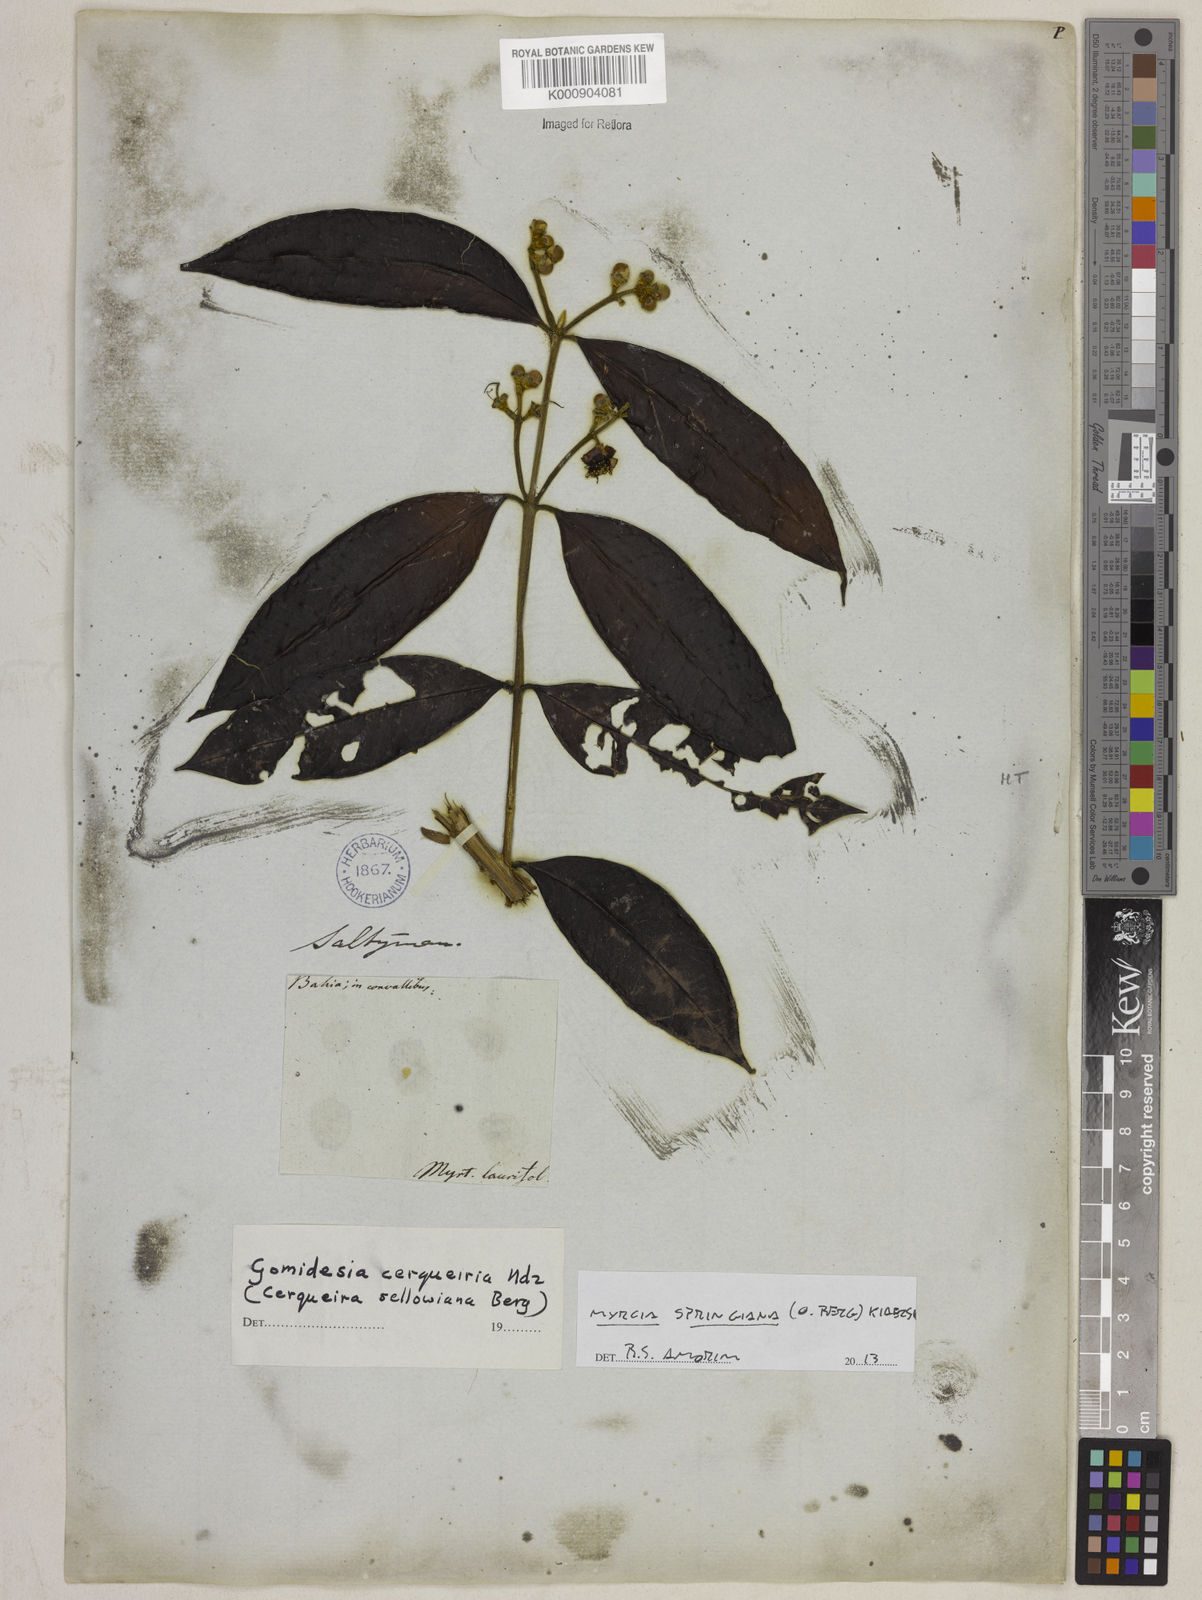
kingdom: Plantae
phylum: Tracheophyta
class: Magnoliopsida
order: Myrtales
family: Myrtaceae
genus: Myrcia
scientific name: Myrcia springiana
